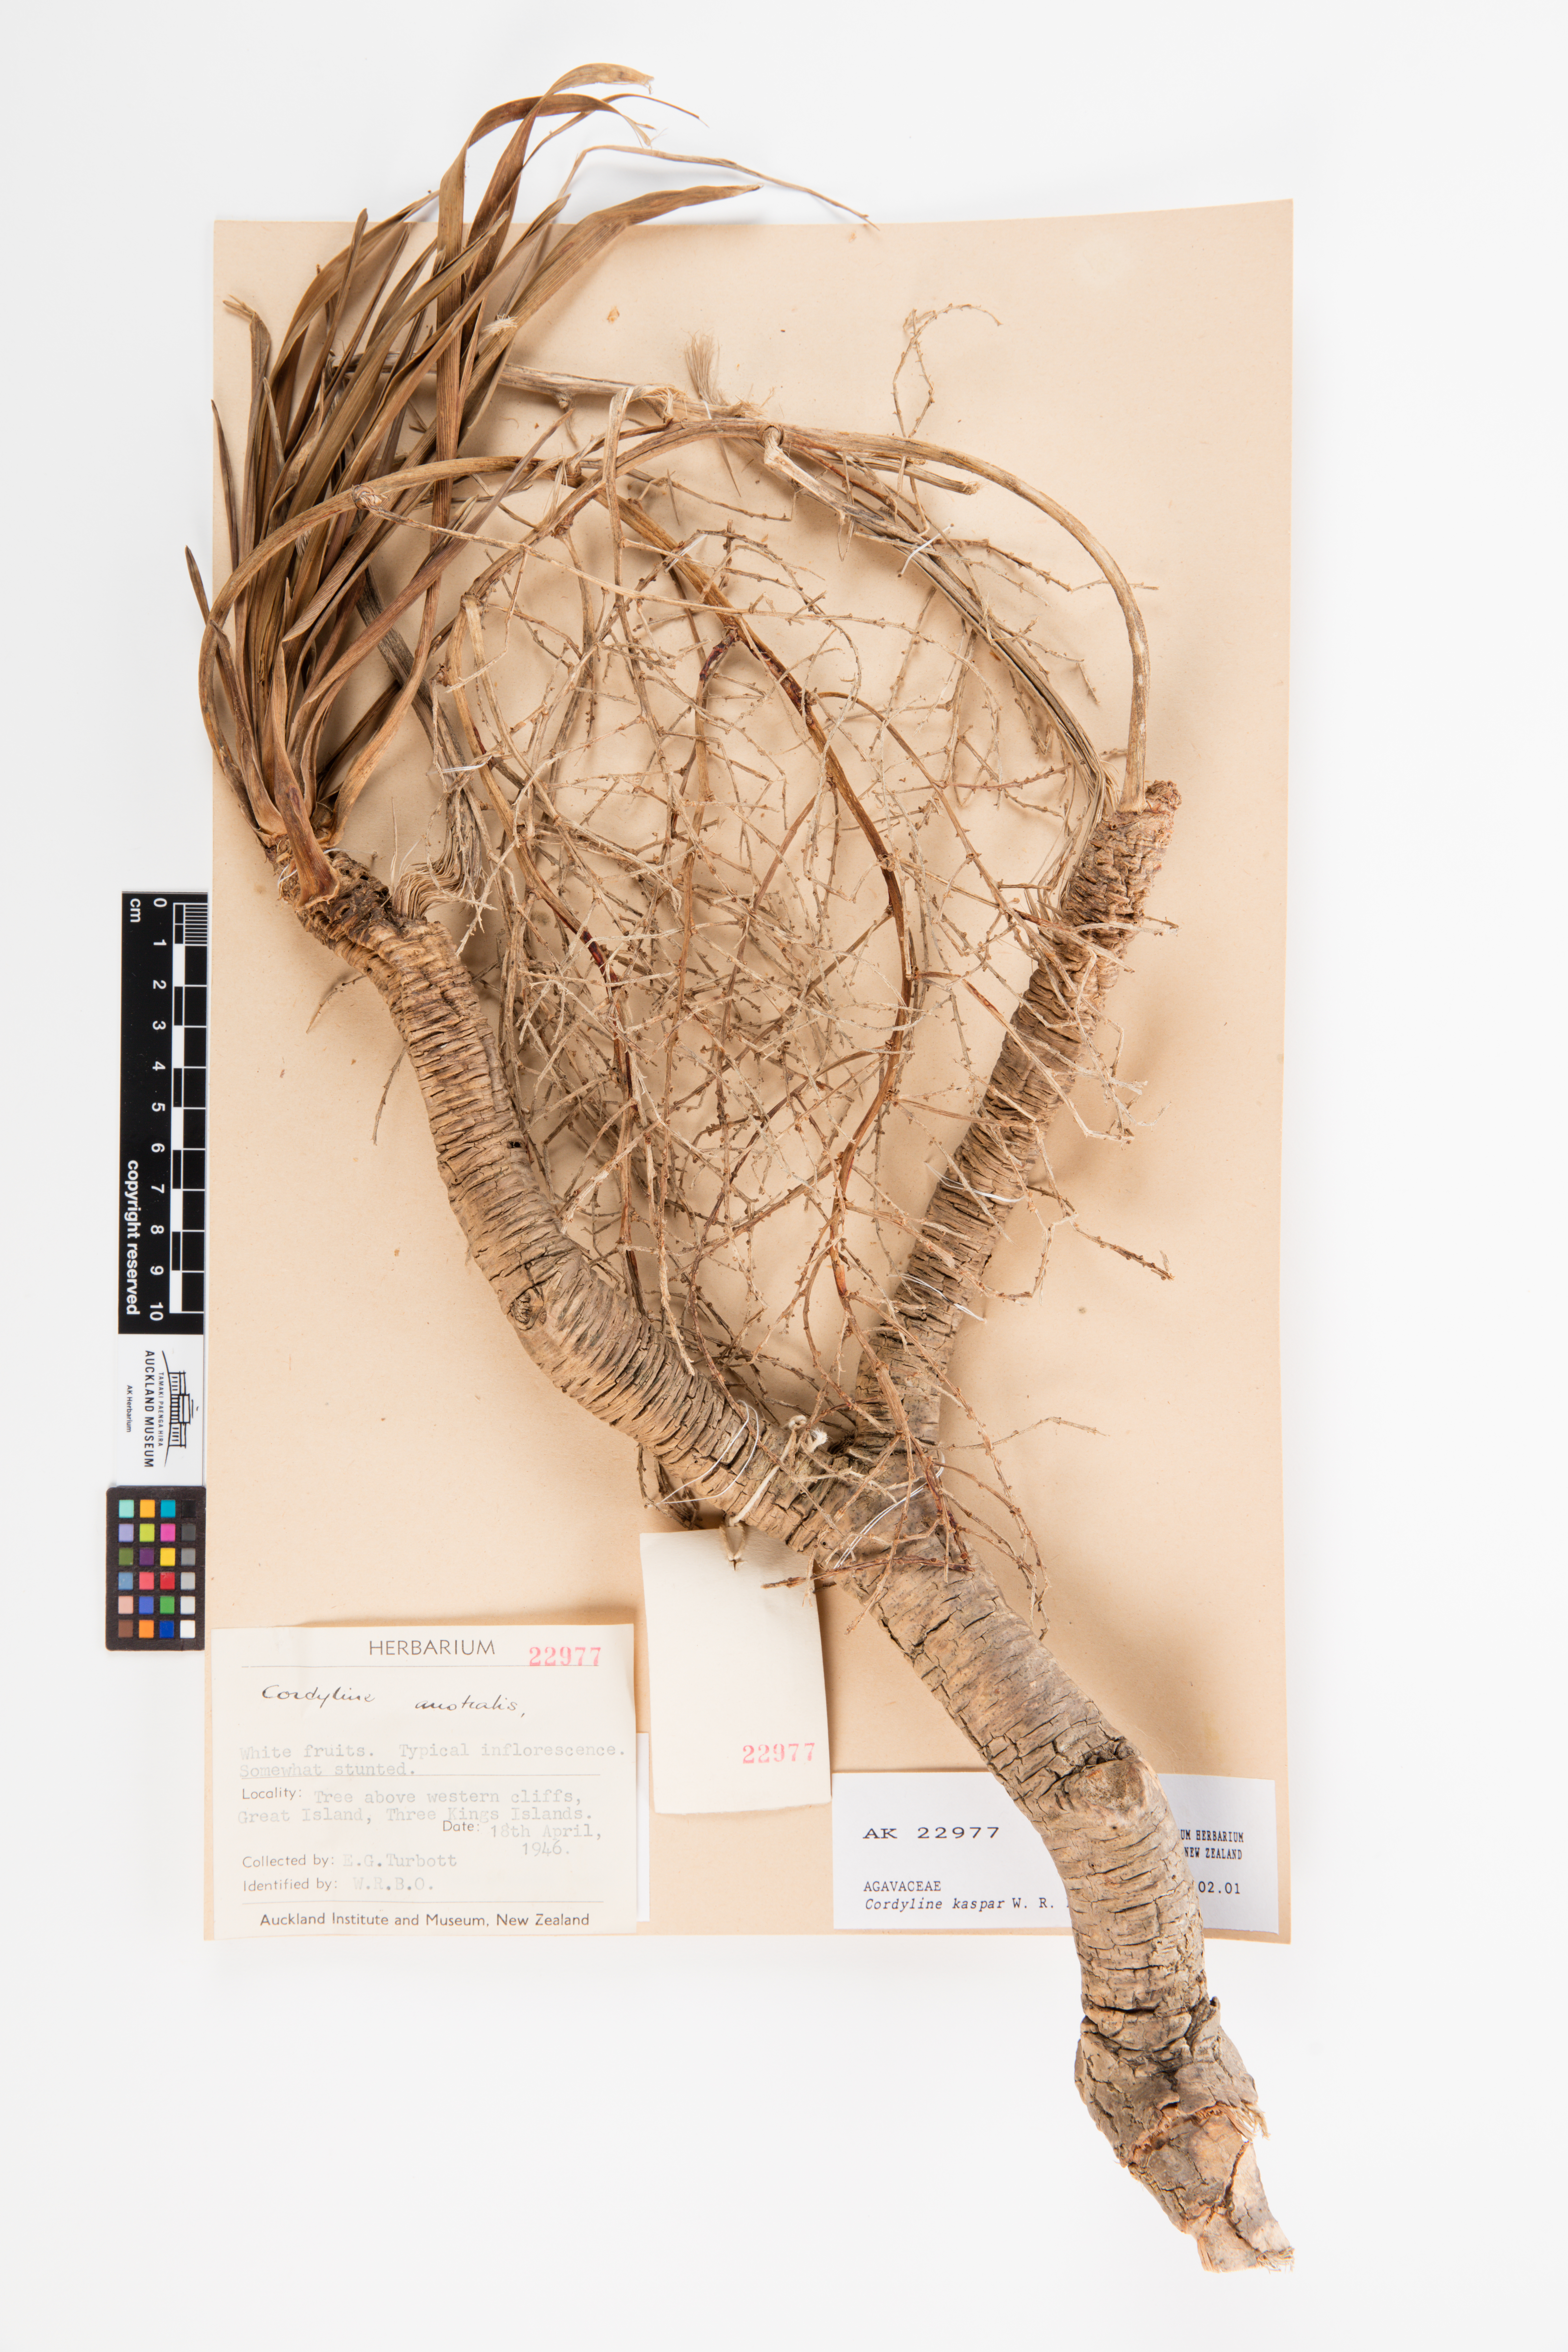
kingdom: Plantae
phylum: Tracheophyta
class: Liliopsida
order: Asparagales
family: Asparagaceae
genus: Cordyline
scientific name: Cordyline obtecta
